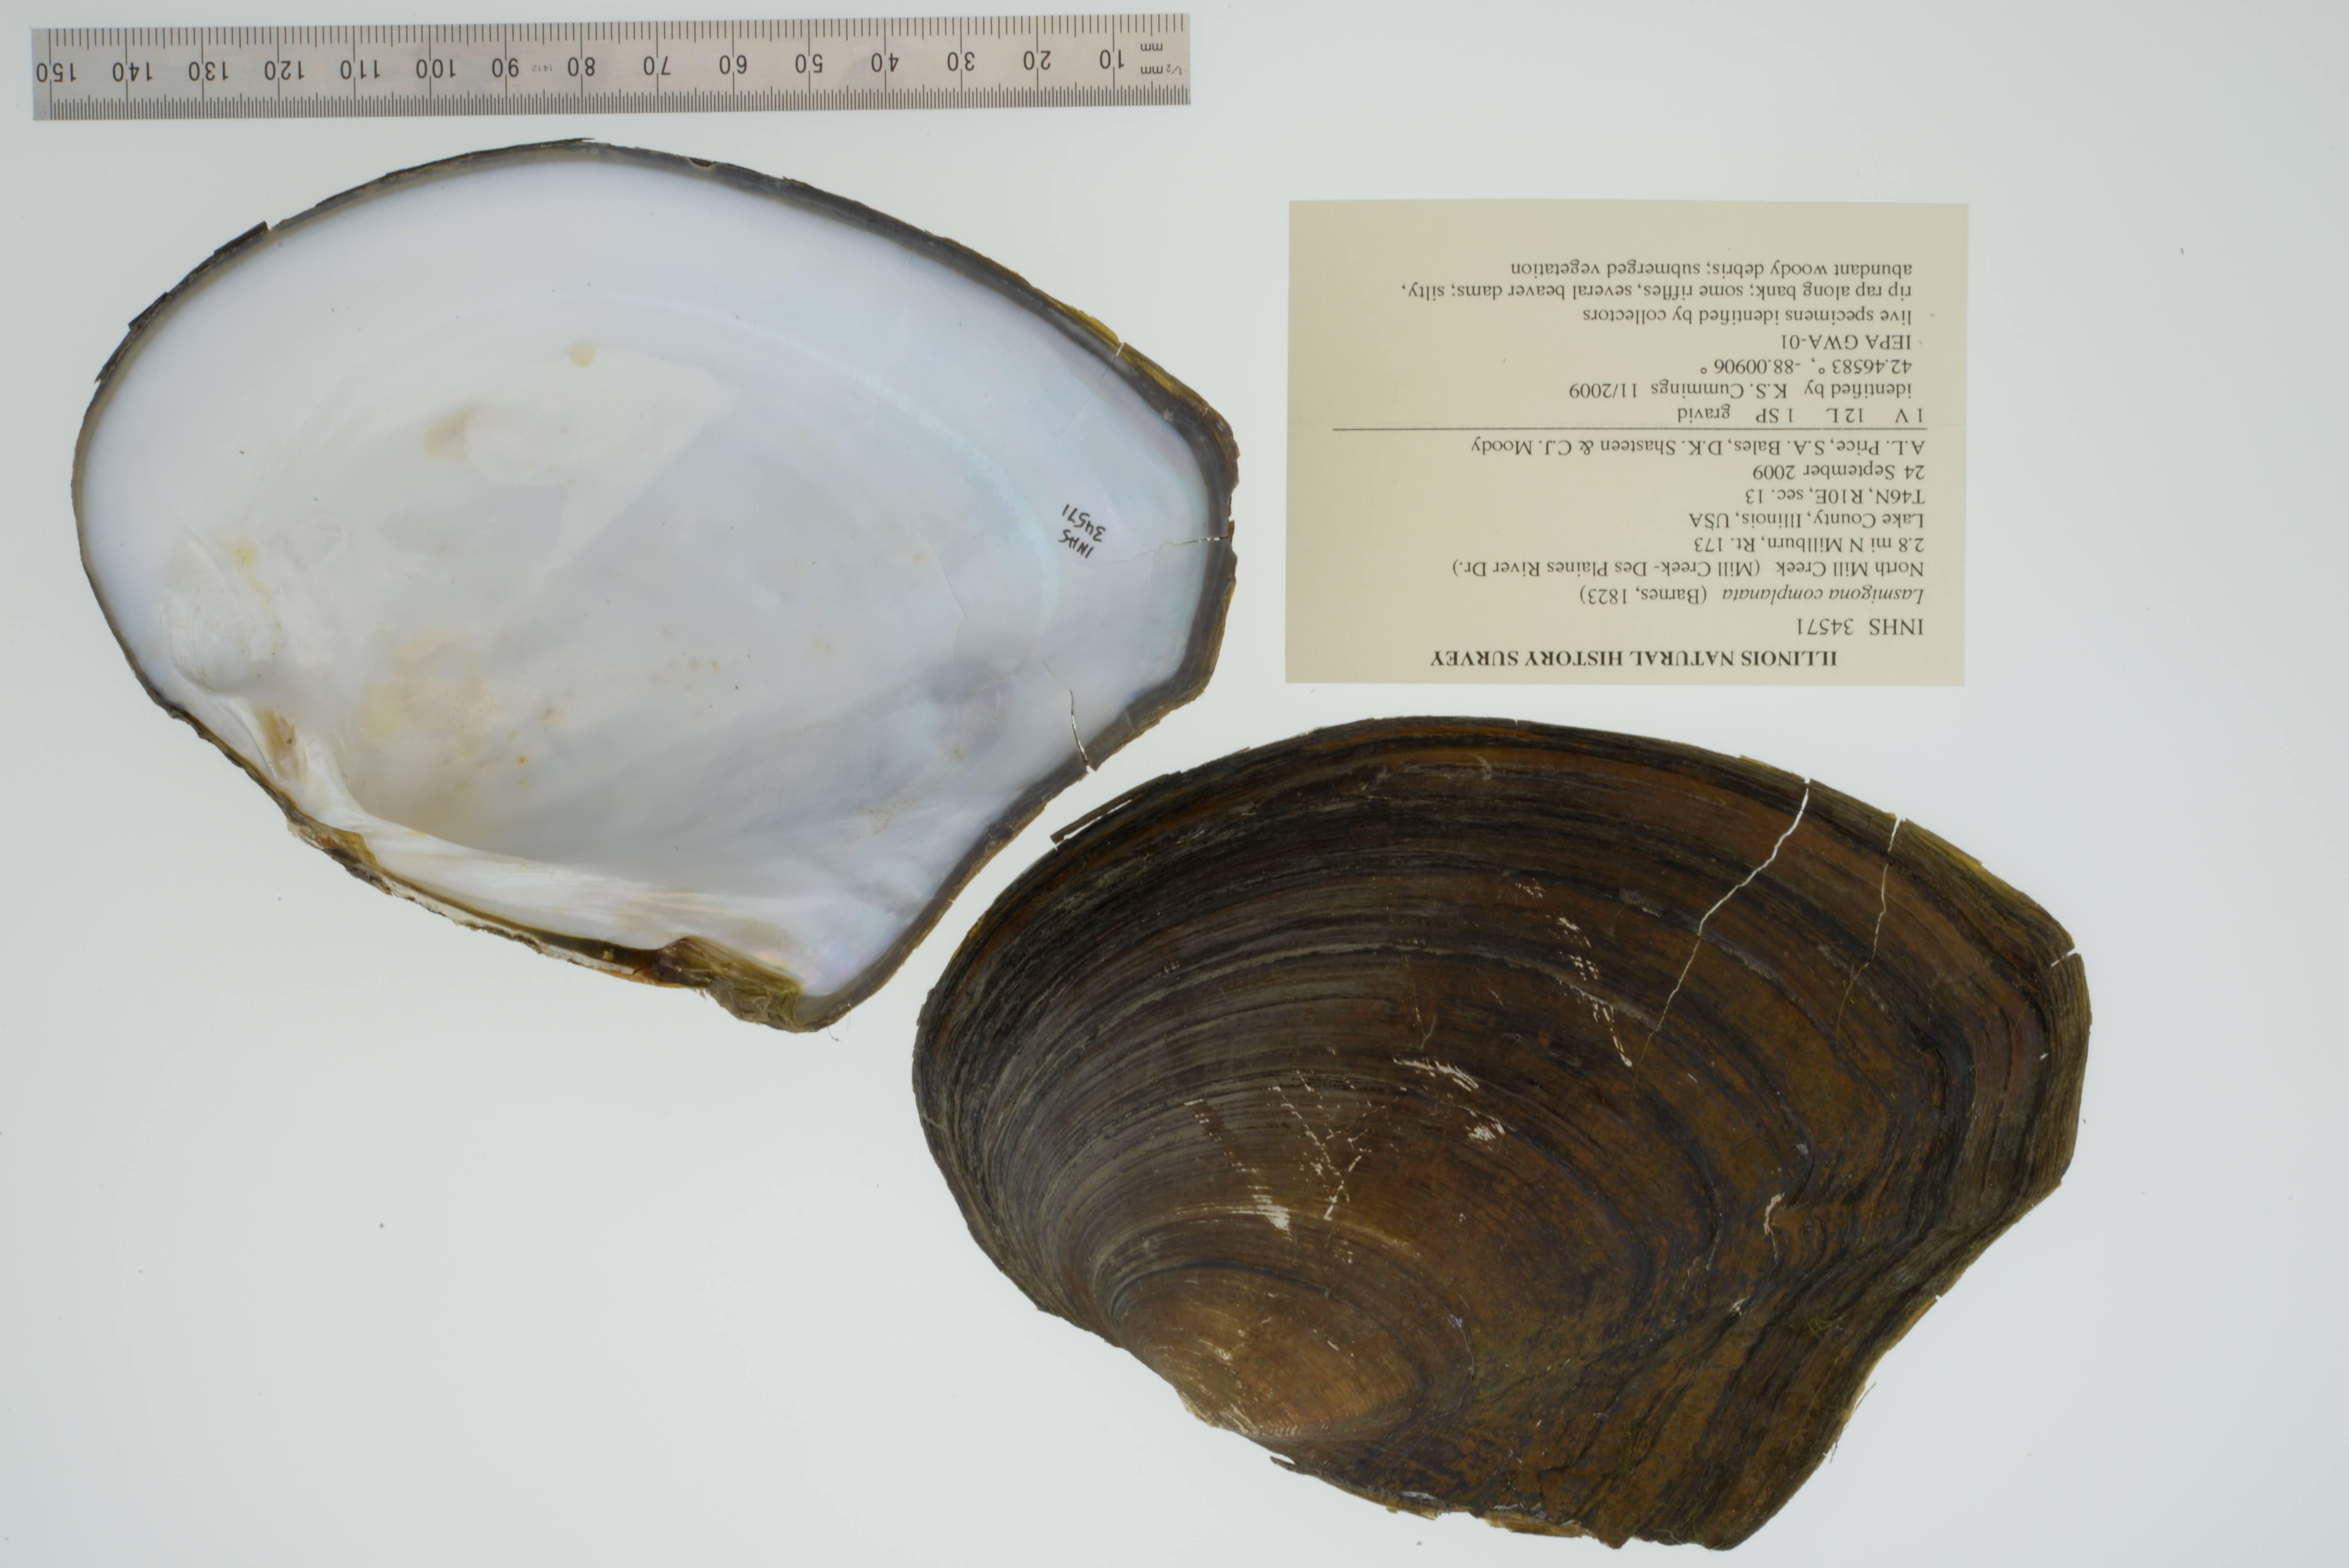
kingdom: Animalia
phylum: Mollusca
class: Bivalvia
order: Unionida
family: Unionidae
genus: Lasmigona
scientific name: Lasmigona complanata
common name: White heelsplitter
